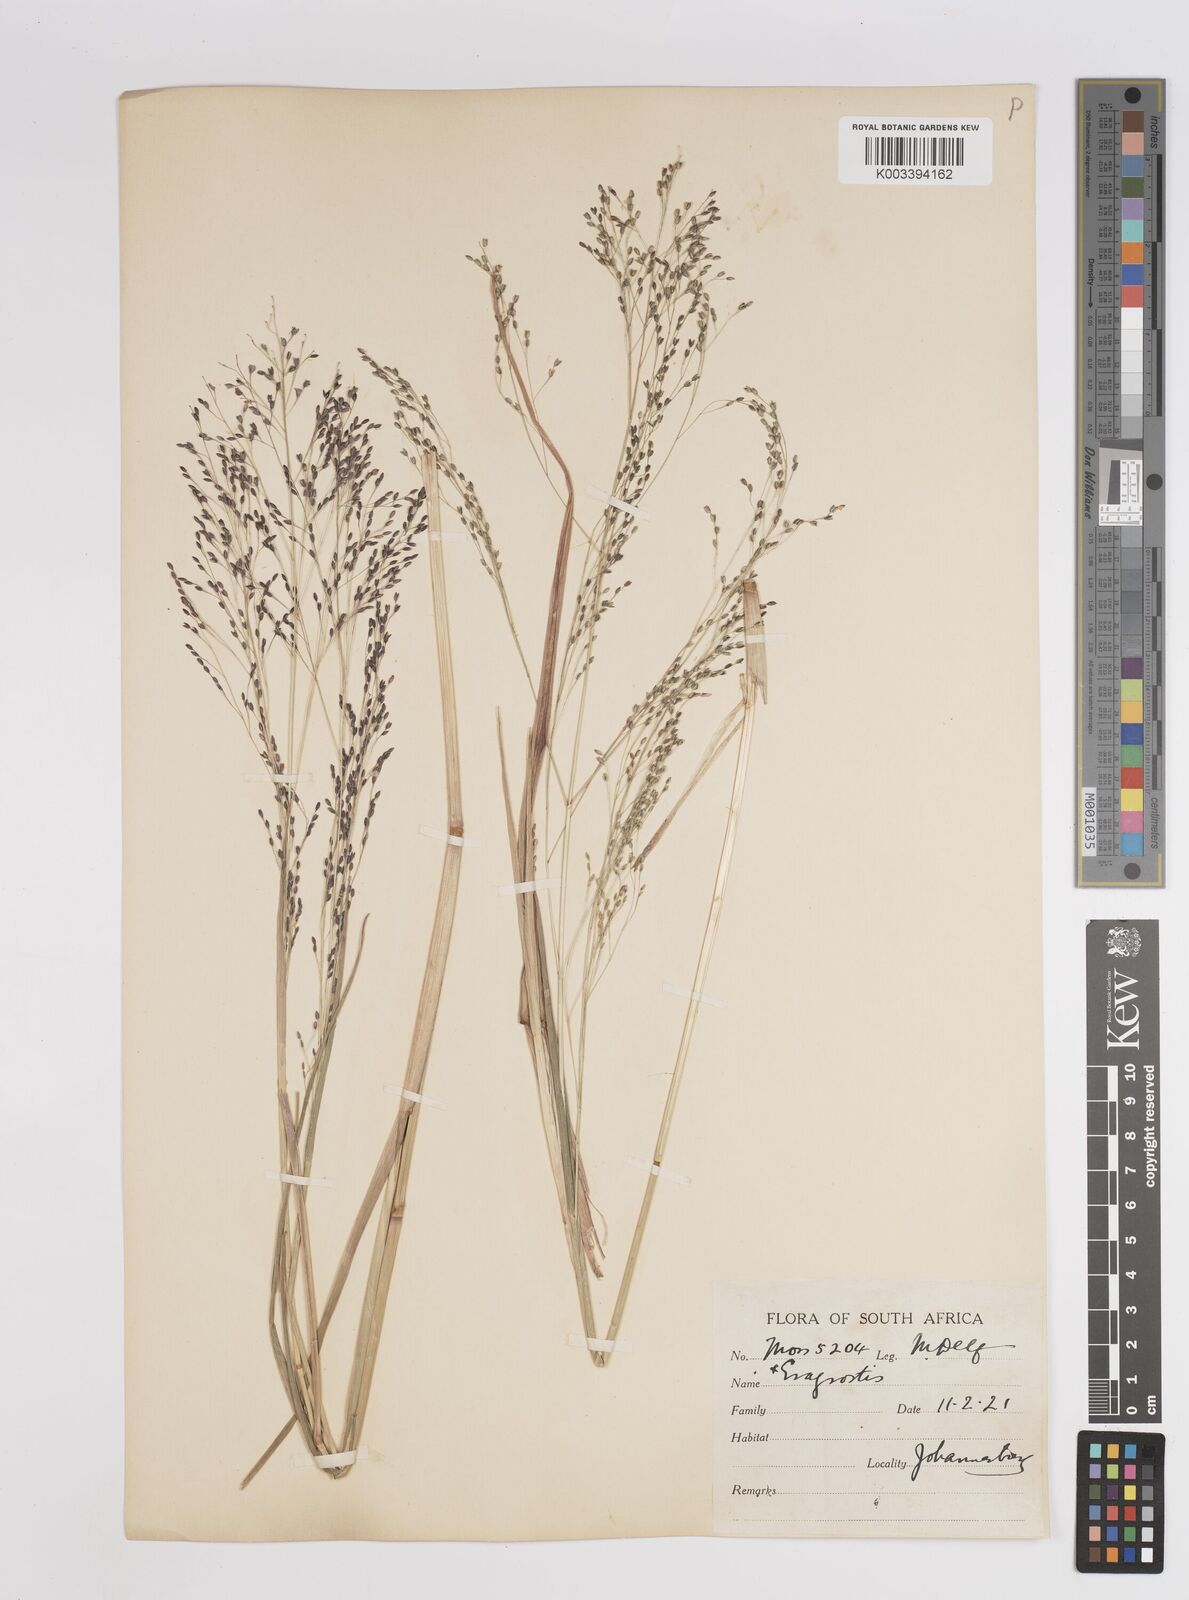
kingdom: Plantae
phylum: Tracheophyta
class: Liliopsida
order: Poales
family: Poaceae
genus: Panicum
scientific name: Panicum schinzii
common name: Sweet grass
